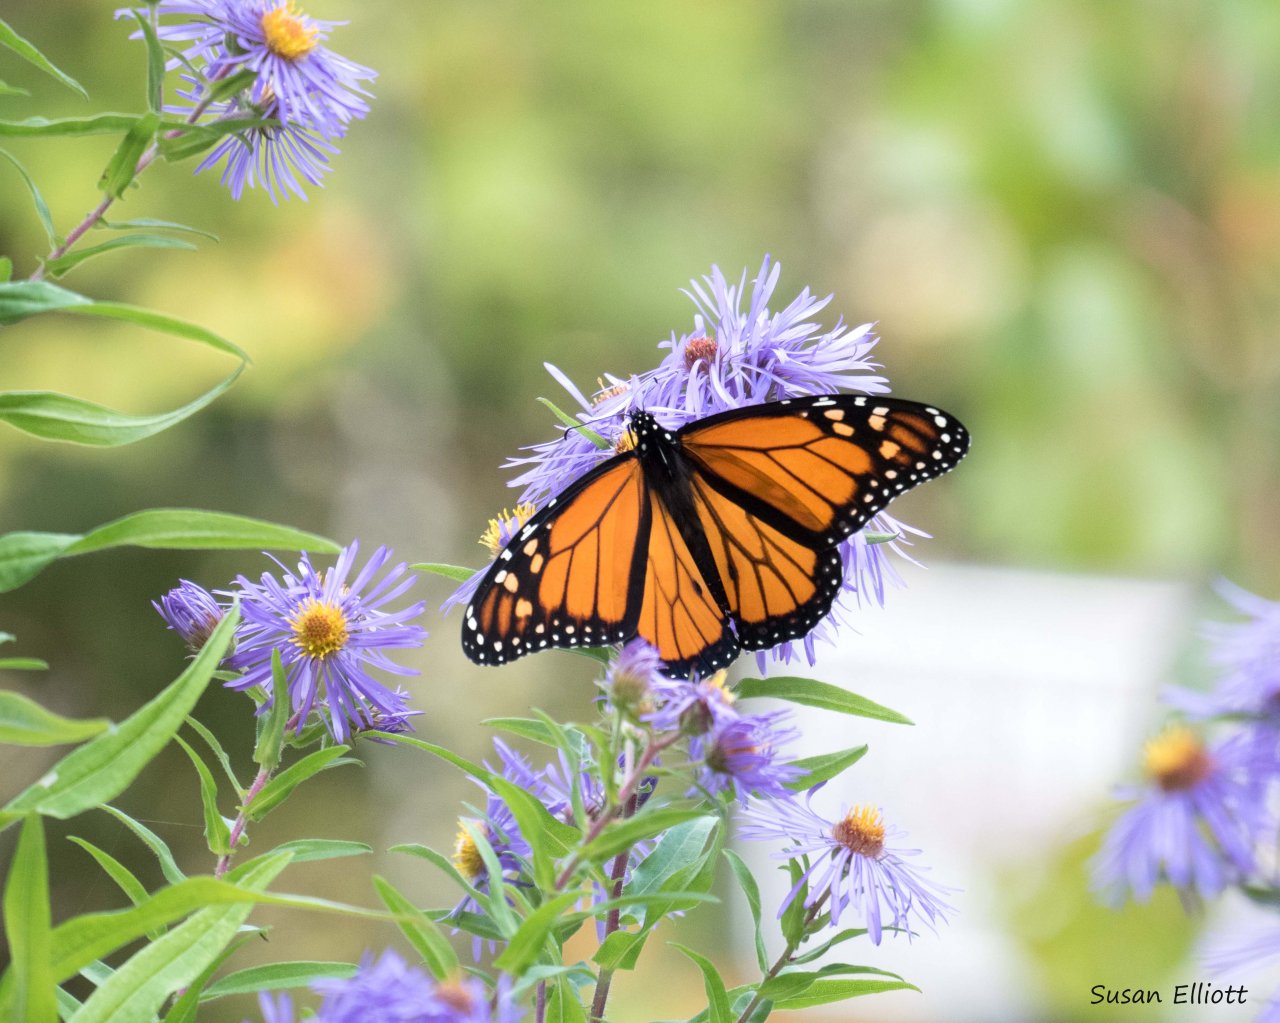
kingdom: Animalia
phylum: Arthropoda
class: Insecta
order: Lepidoptera
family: Nymphalidae
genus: Danaus
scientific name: Danaus plexippus
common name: Monarch
